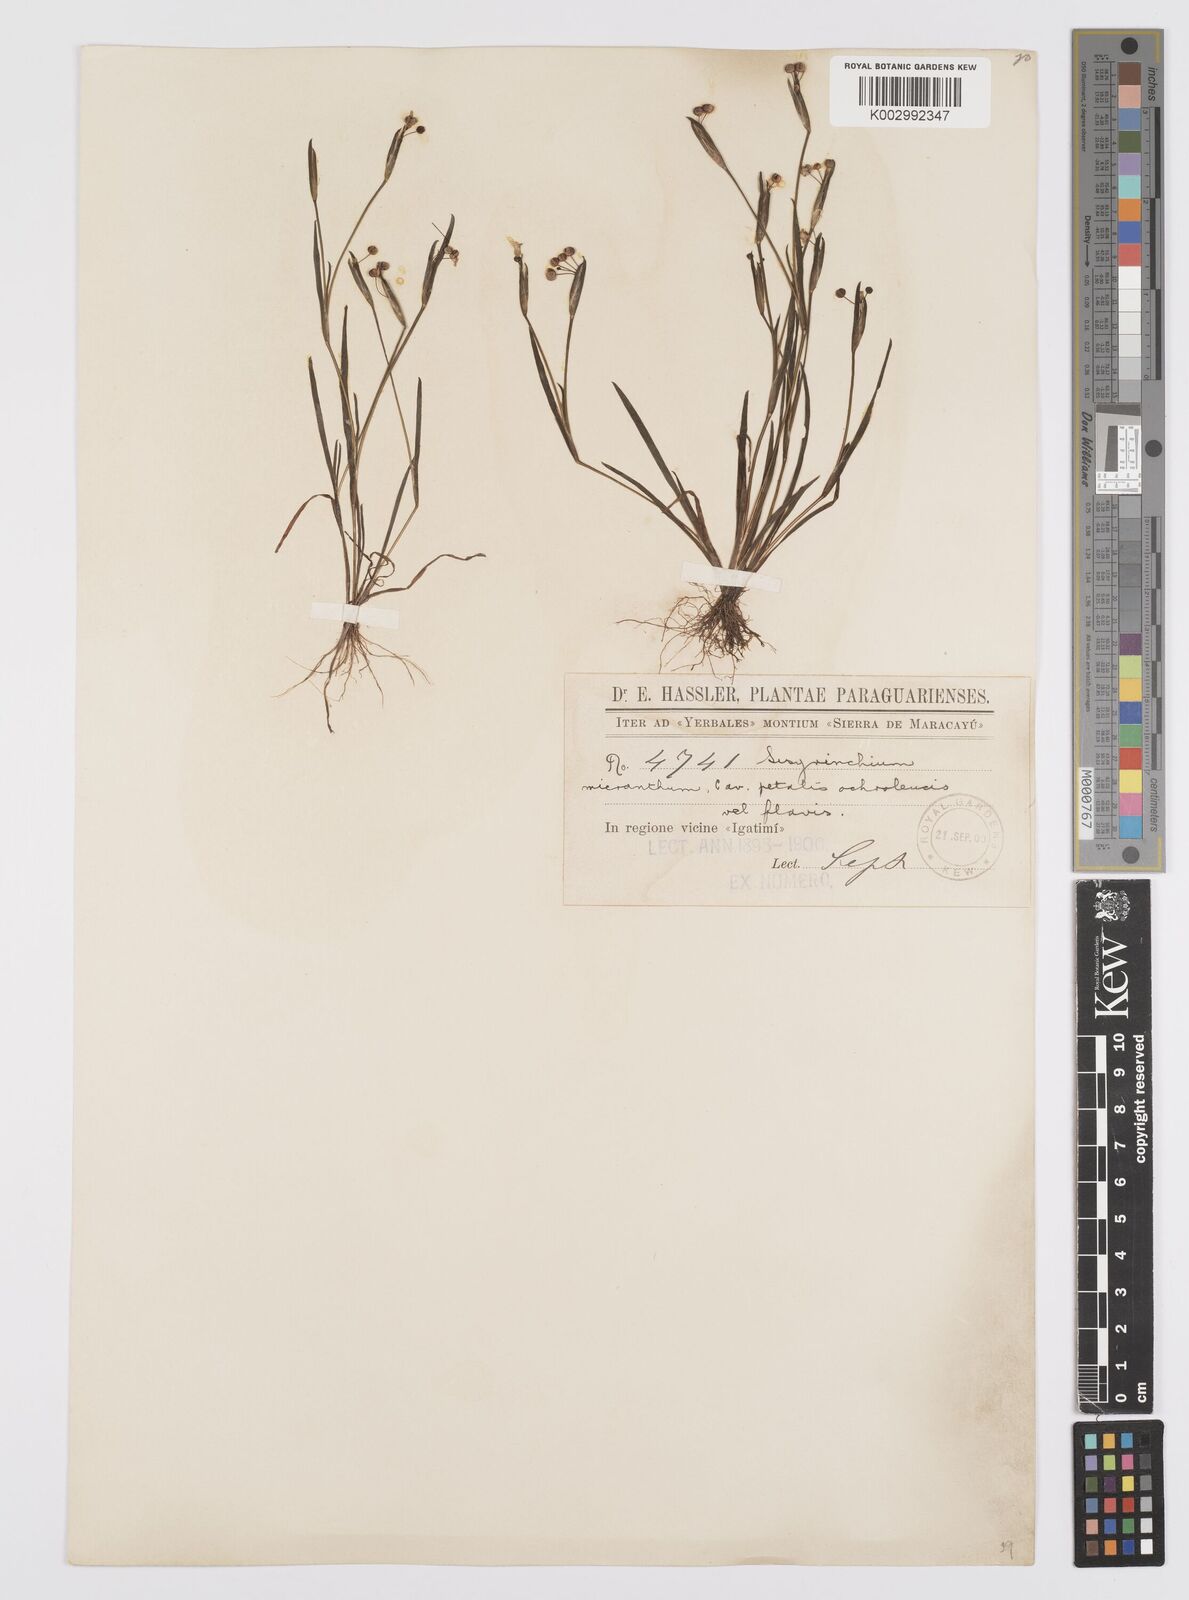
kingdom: Plantae
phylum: Tracheophyta
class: Liliopsida
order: Asparagales
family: Iridaceae
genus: Sisyrinchium
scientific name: Sisyrinchium micranthum
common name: Bermuda pigroot
